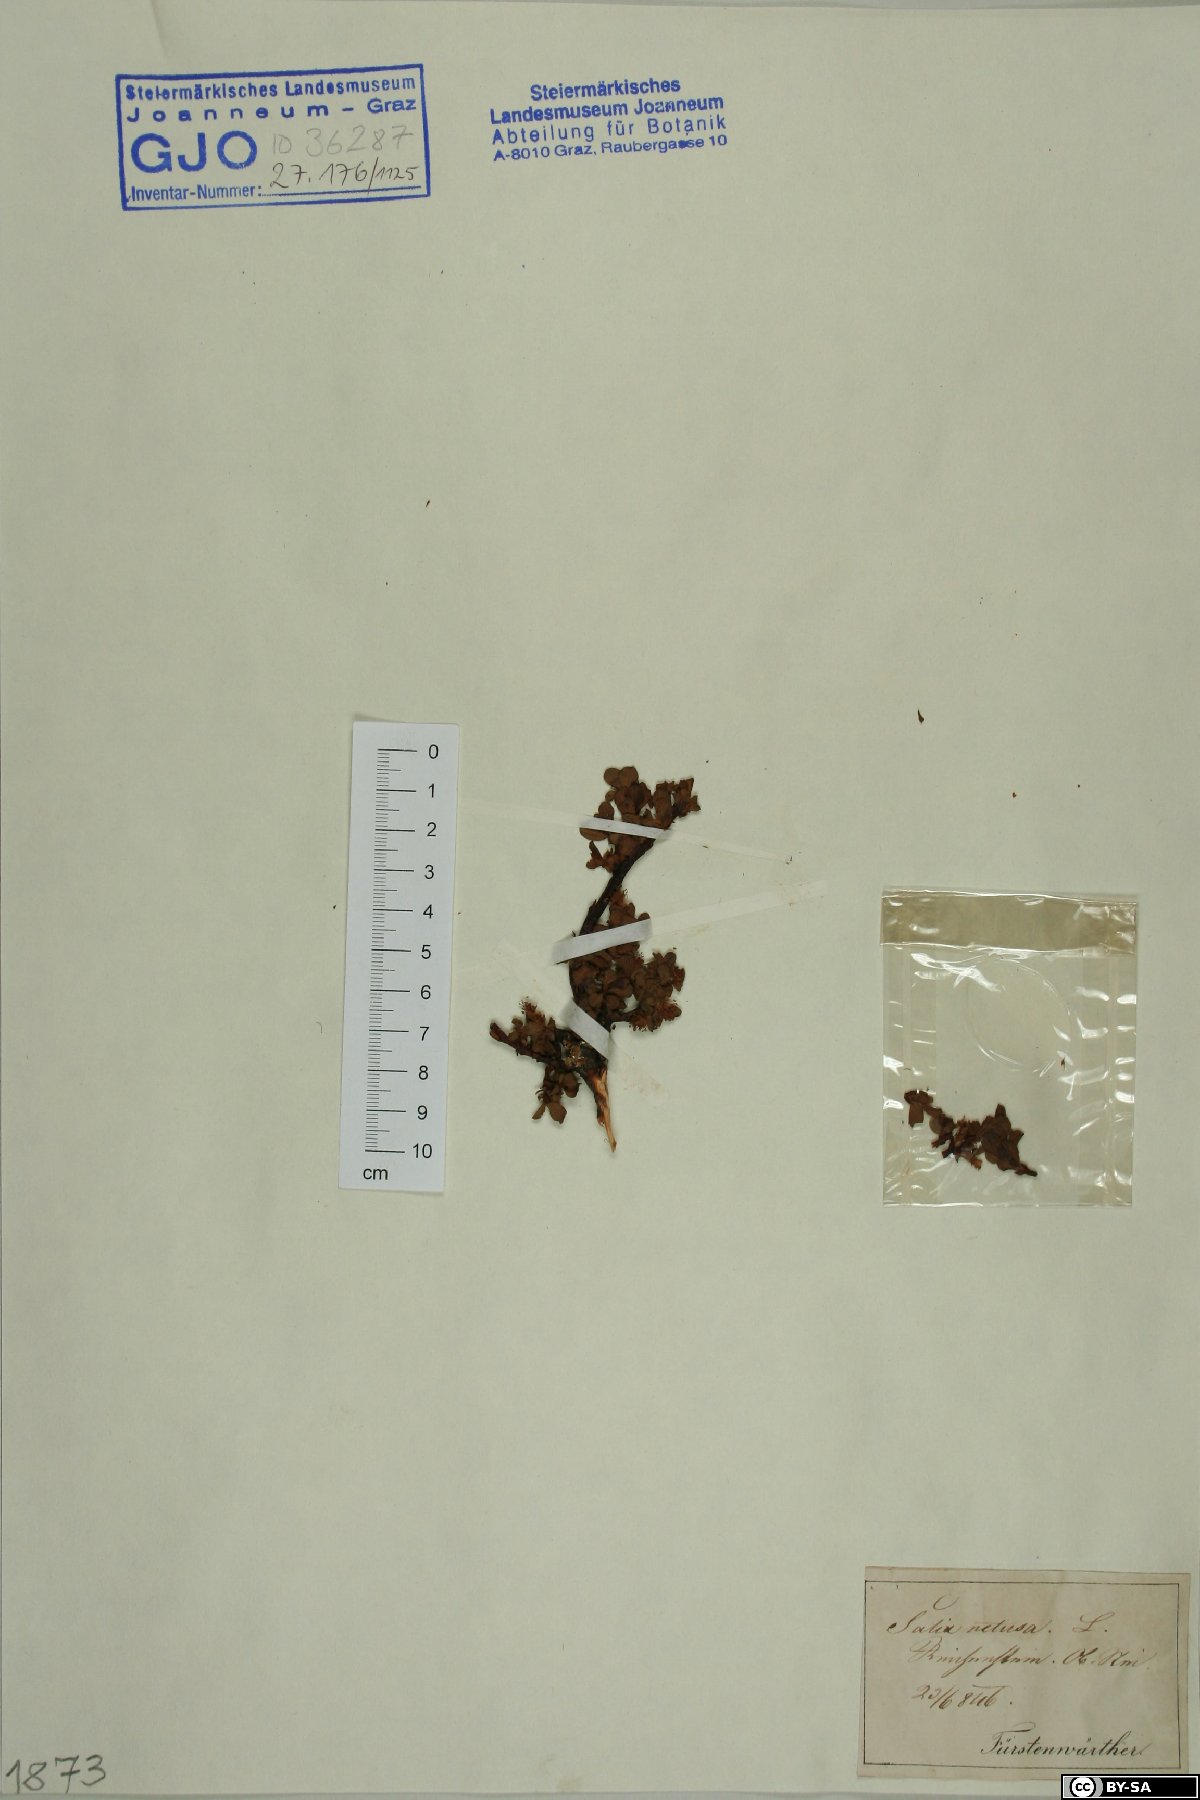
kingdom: Plantae
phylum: Tracheophyta
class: Magnoliopsida
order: Malpighiales
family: Salicaceae
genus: Salix
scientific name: Salix retusa
